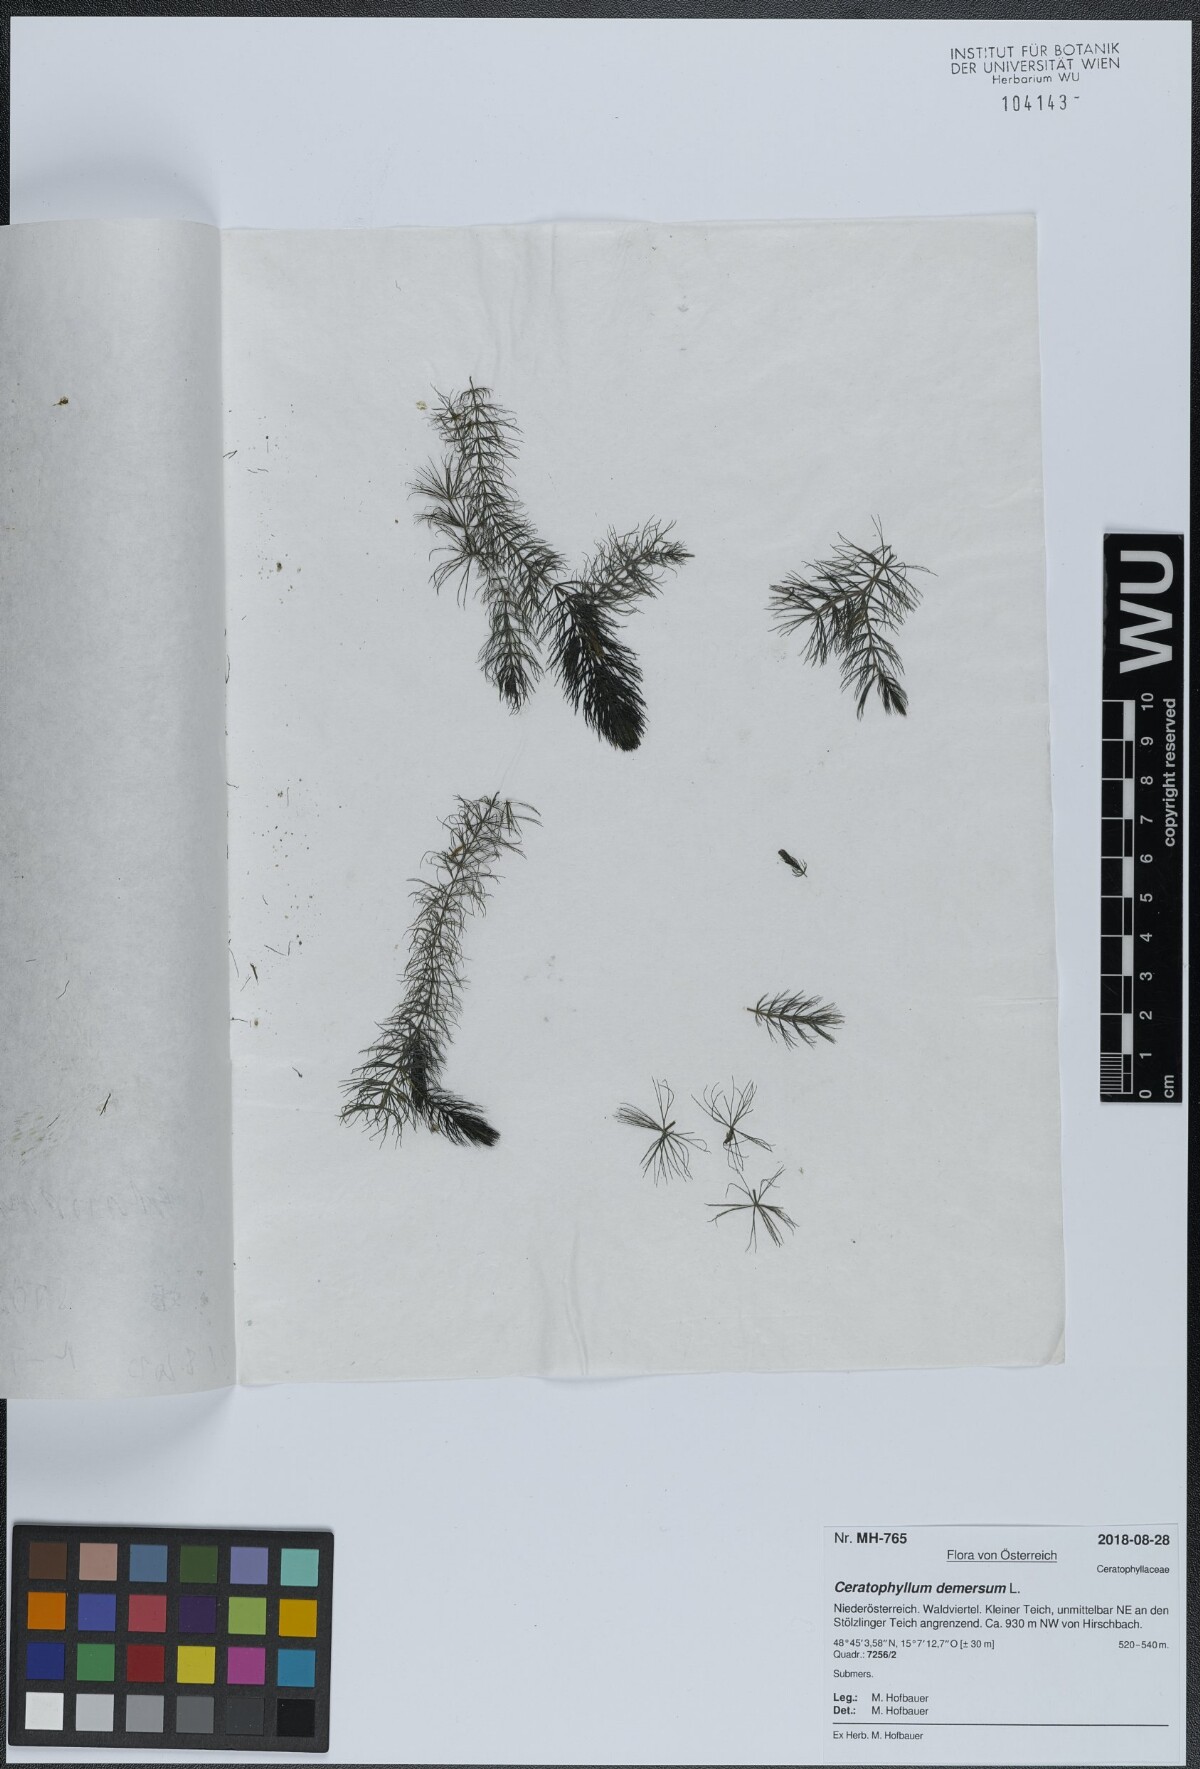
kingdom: Plantae
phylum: Tracheophyta
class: Magnoliopsida
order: Ceratophyllales
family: Ceratophyllaceae
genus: Ceratophyllum
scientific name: Ceratophyllum demersum
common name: Rigid hornwort
